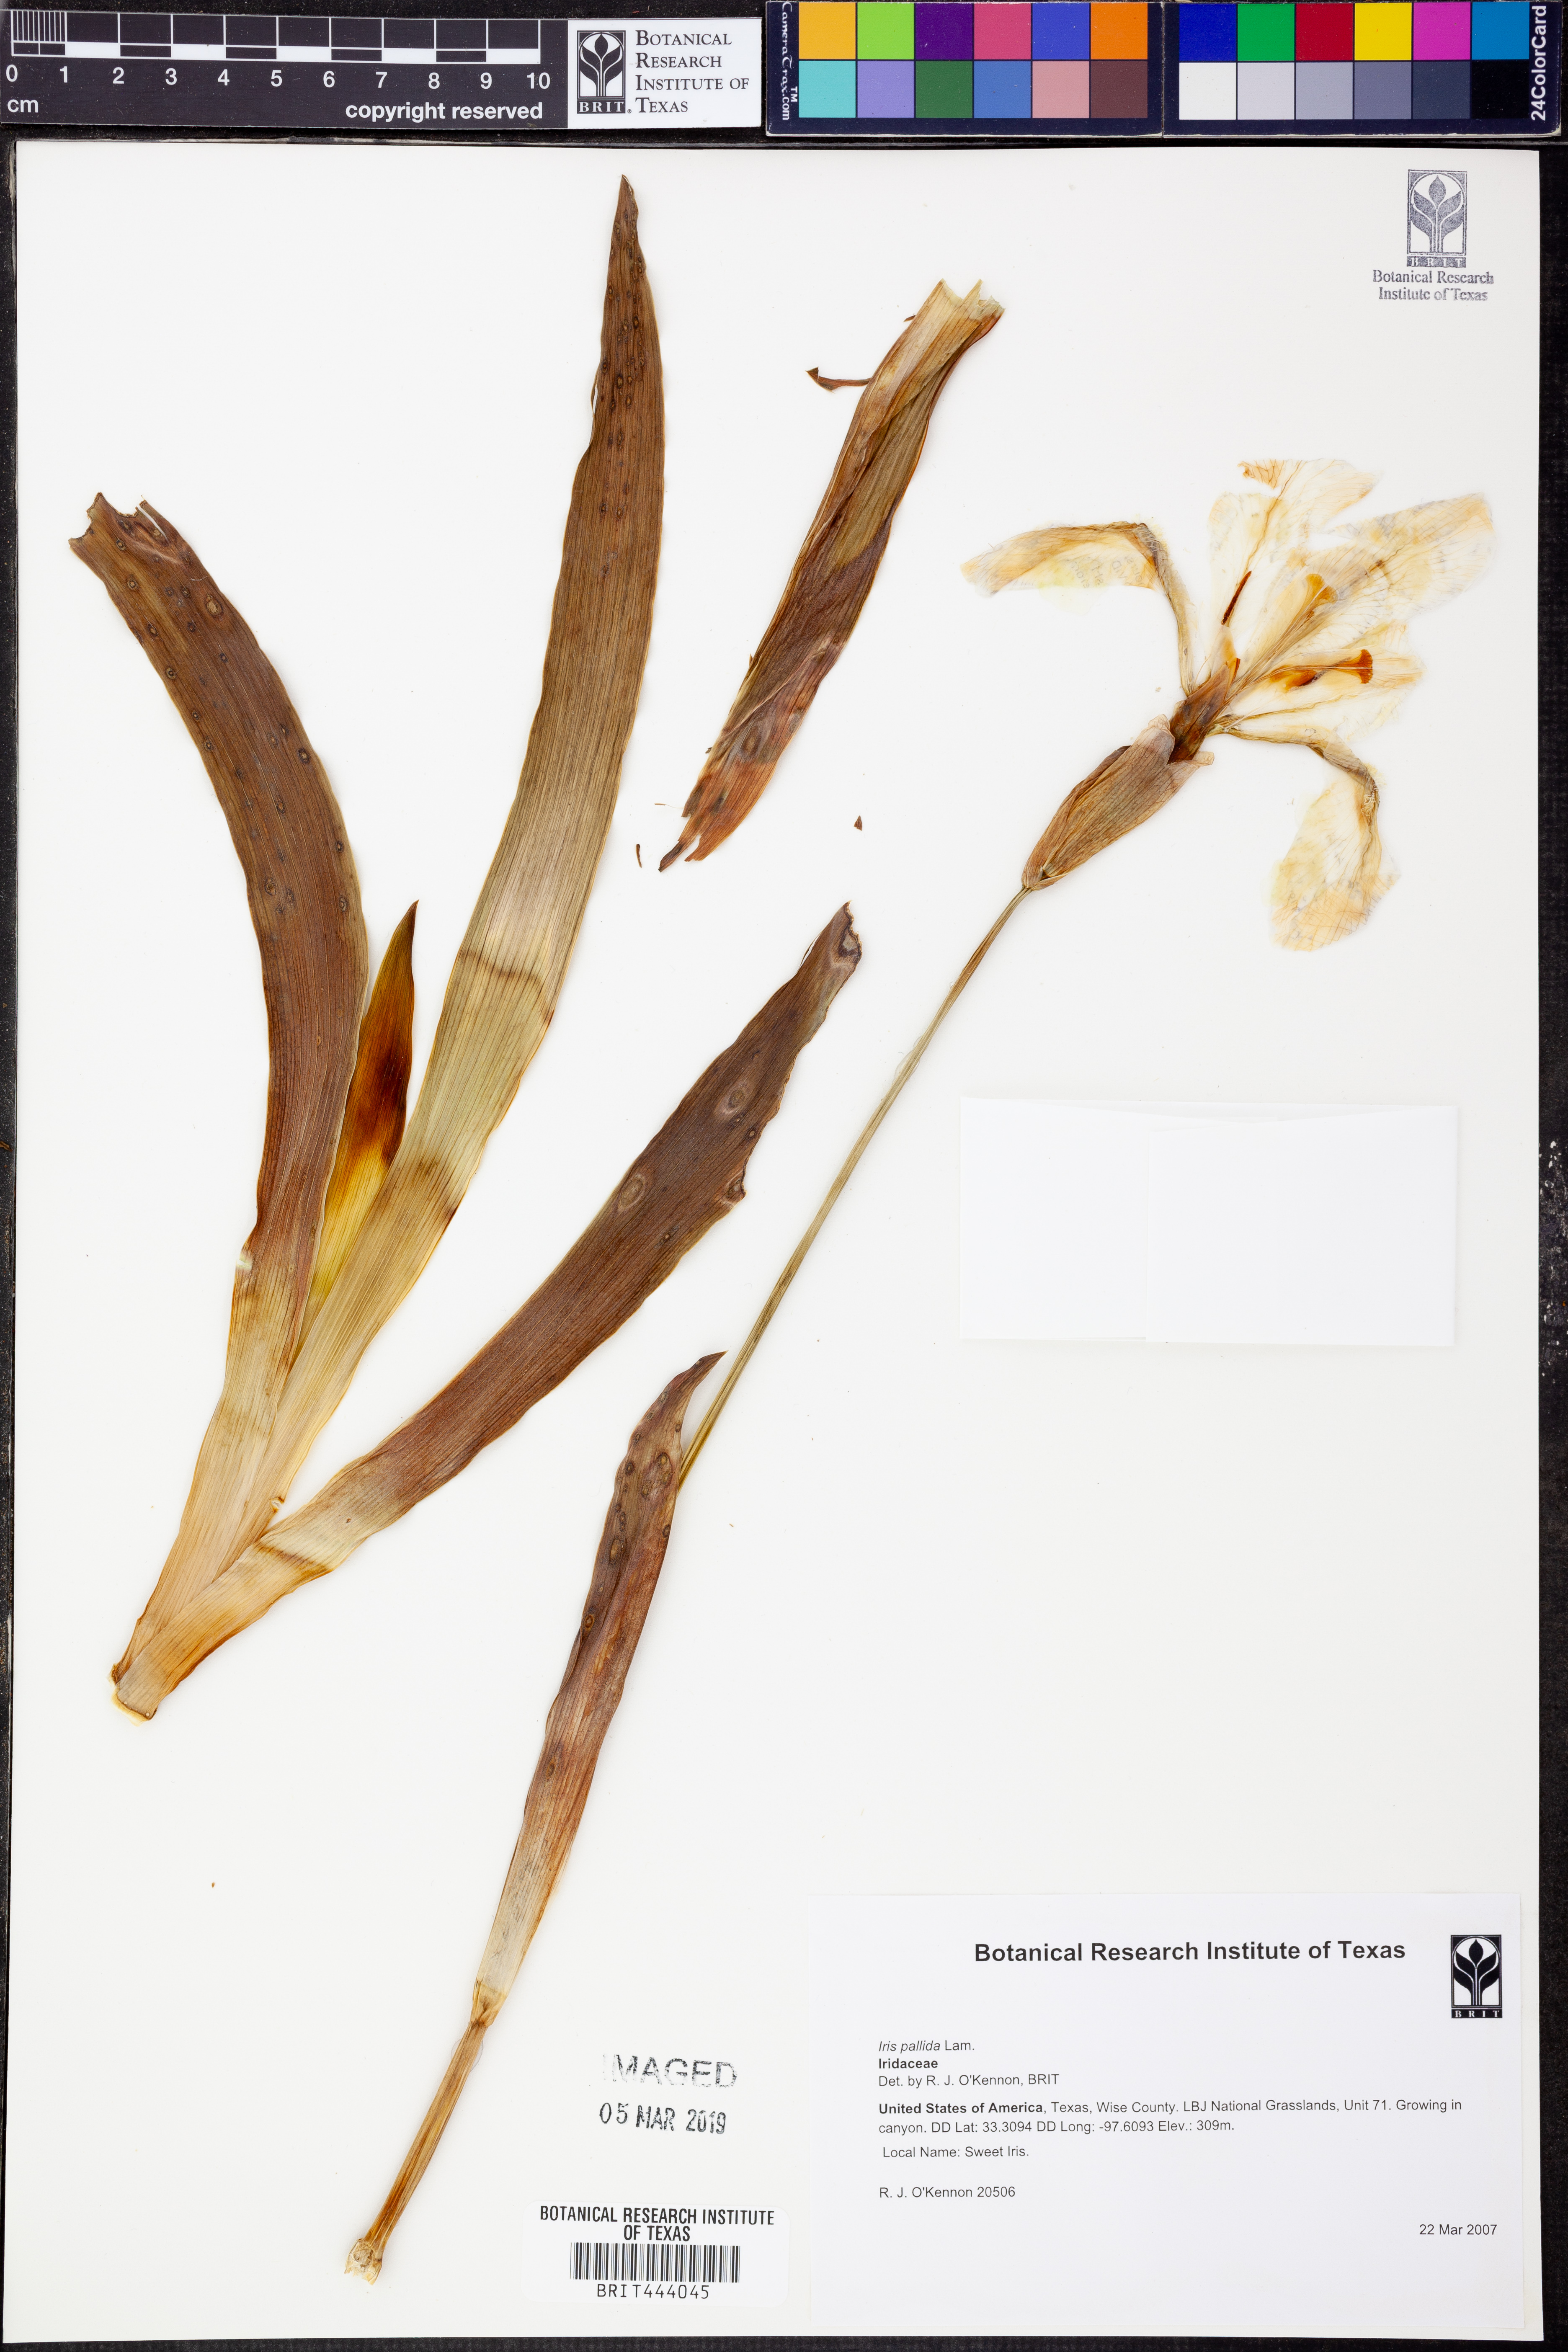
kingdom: Plantae
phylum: Tracheophyta
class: Liliopsida
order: Asparagales
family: Iridaceae
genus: Iris
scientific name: Iris pallida
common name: Sweet iris
